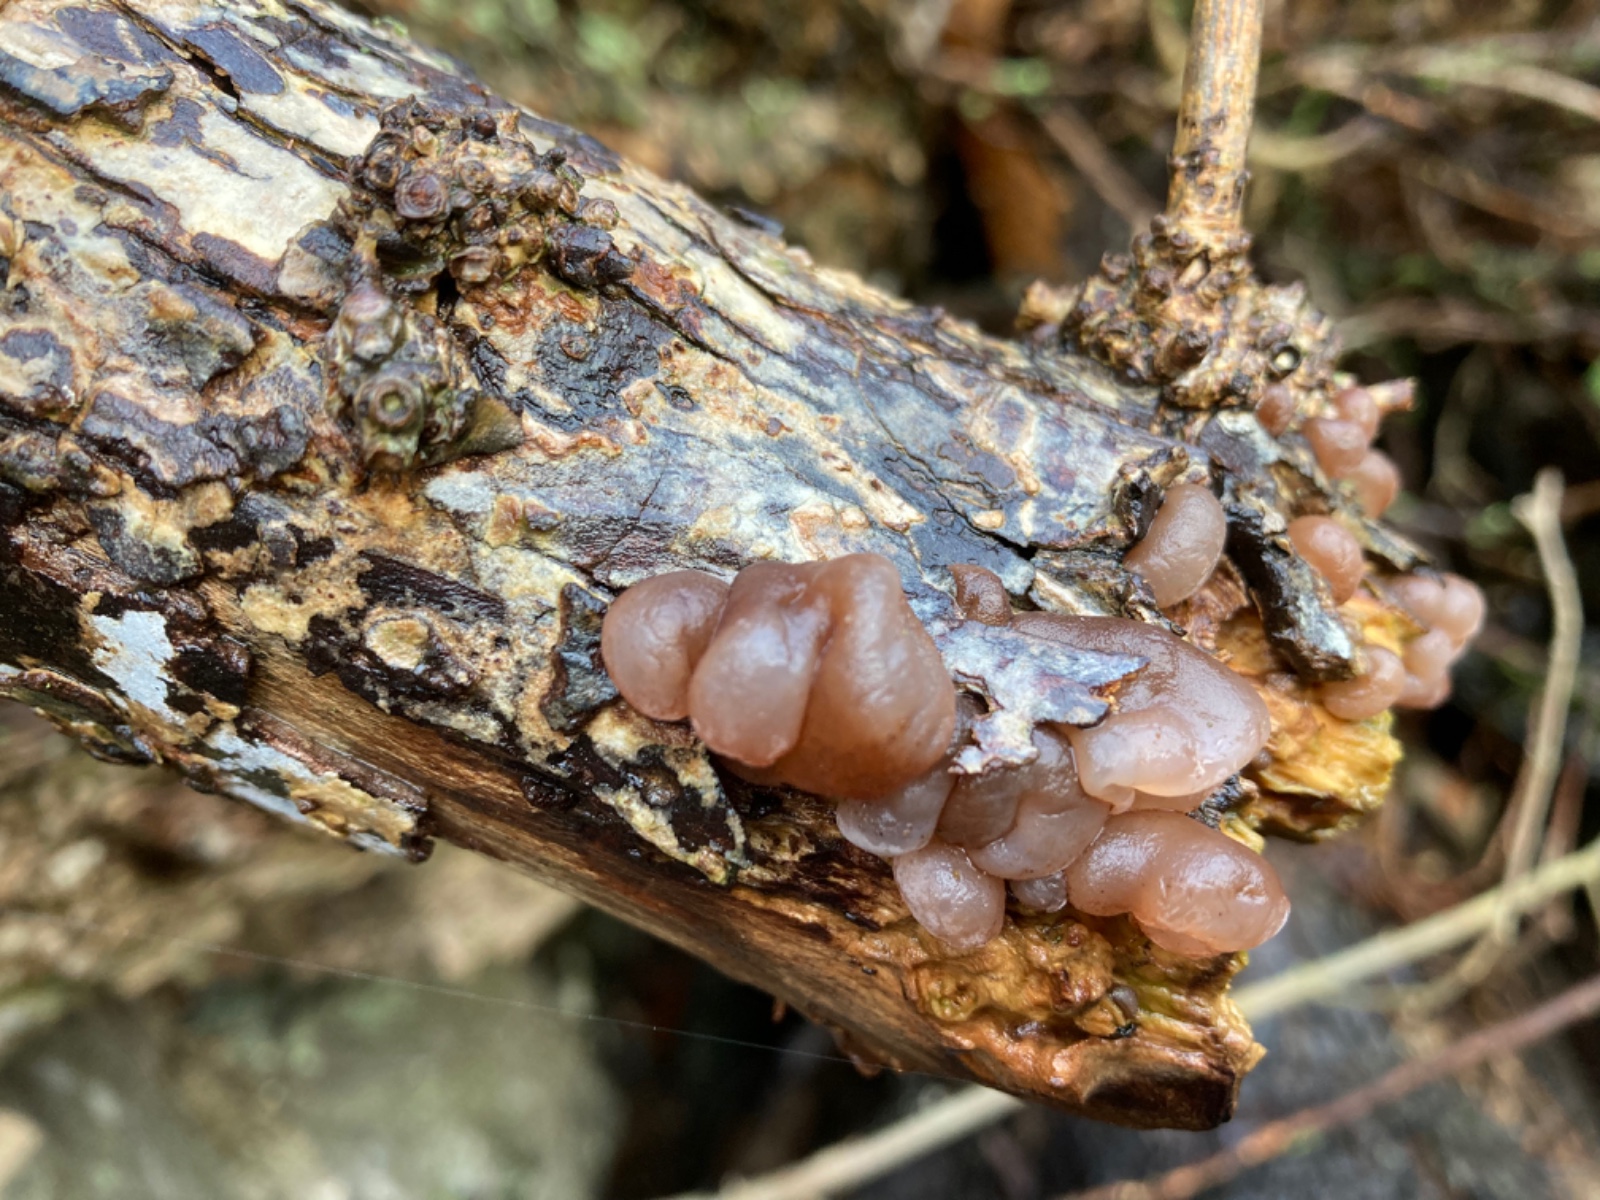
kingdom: Fungi
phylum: Basidiomycota
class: Agaricomycetes
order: Auriculariales
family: Auriculariaceae
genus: Auricularia
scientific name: Auricularia auricula-judae
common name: almindelig judasøre
